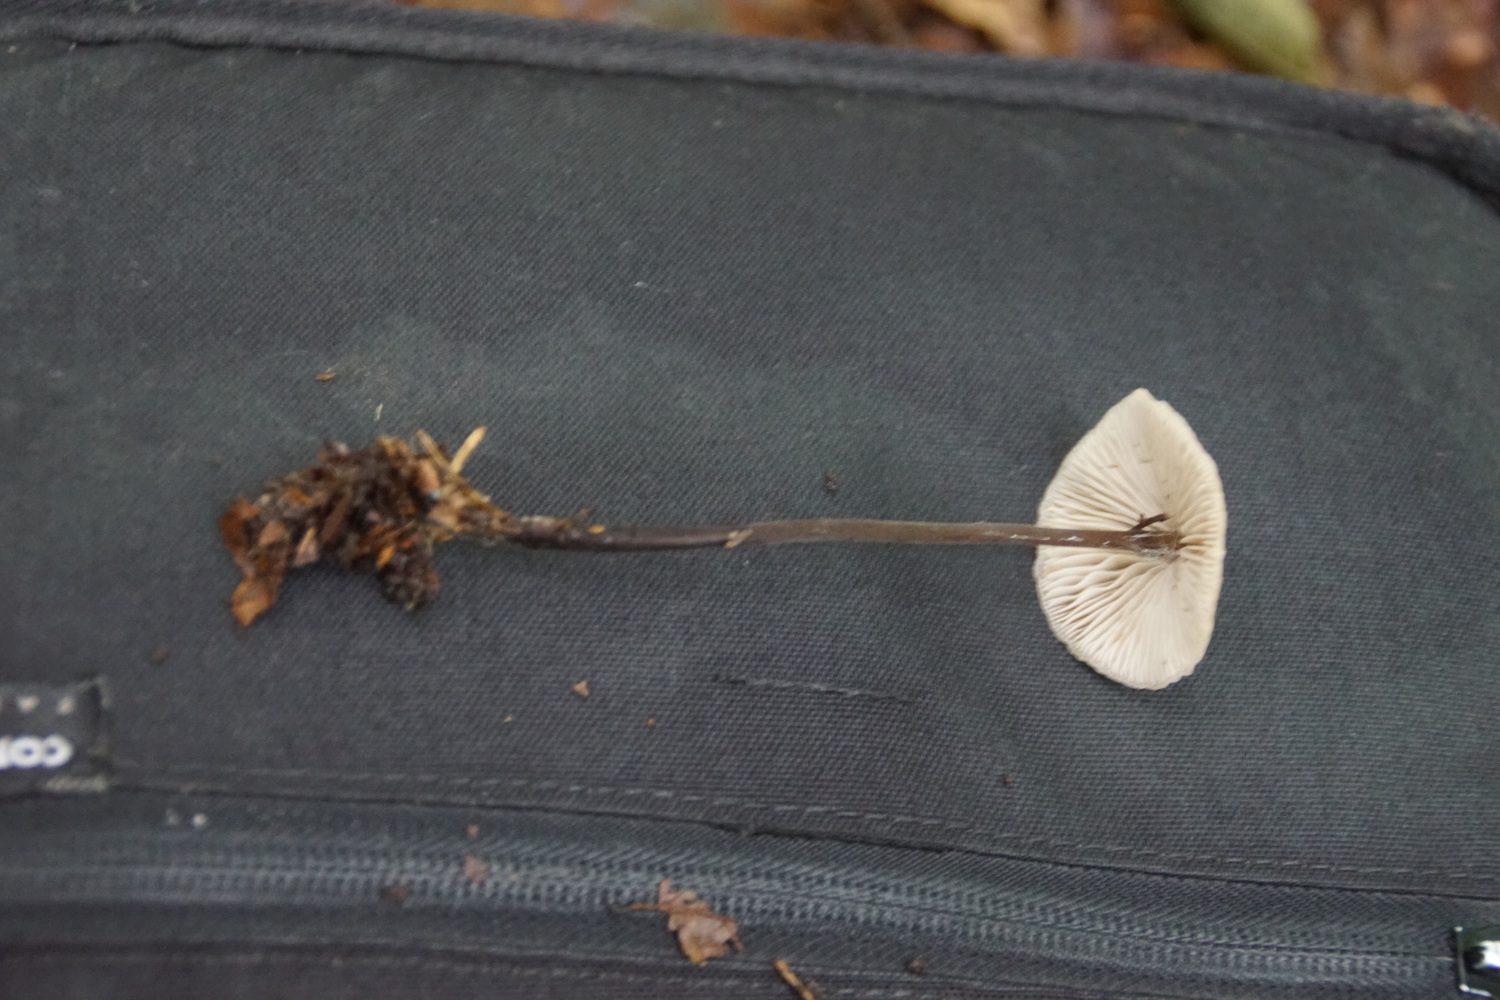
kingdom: Fungi
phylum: Basidiomycota
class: Agaricomycetes
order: Agaricales
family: Omphalotaceae
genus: Mycetinis
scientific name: Mycetinis alliaceus
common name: stor løghat
